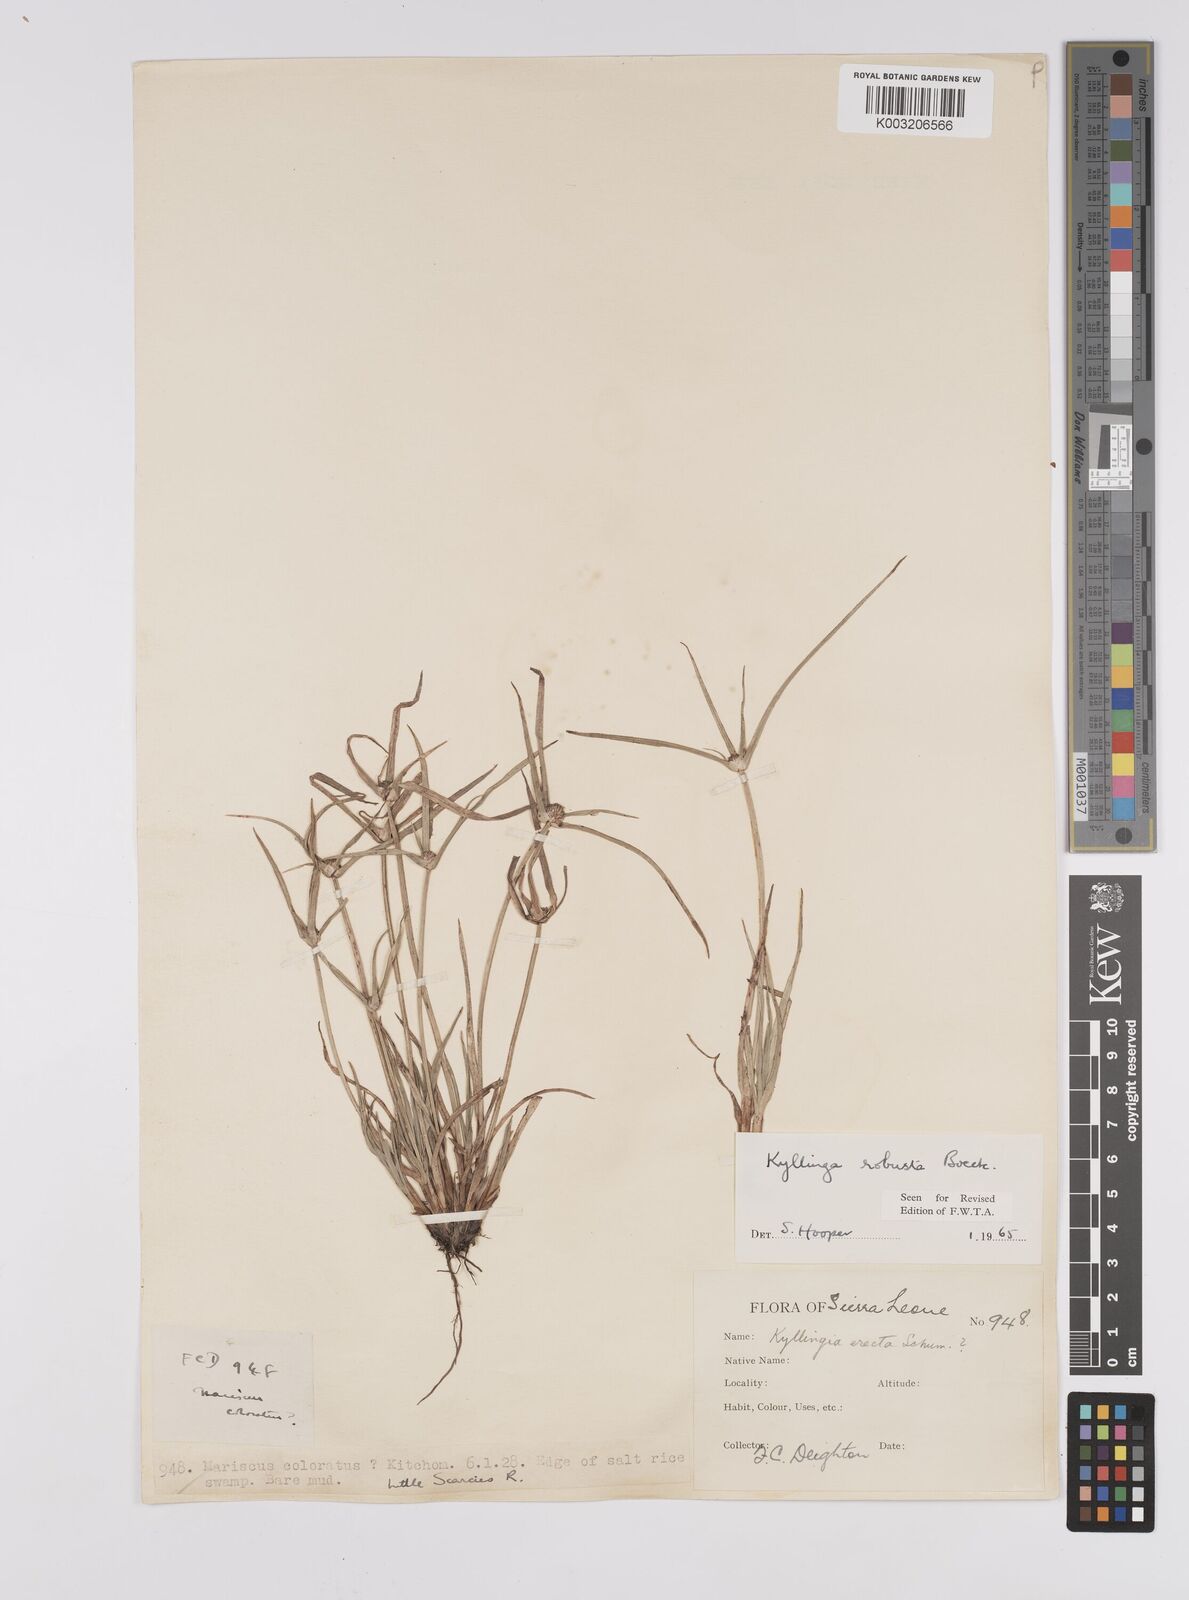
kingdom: Plantae
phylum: Tracheophyta
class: Liliopsida
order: Poales
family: Cyperaceae
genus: Cyperus
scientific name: Cyperus
